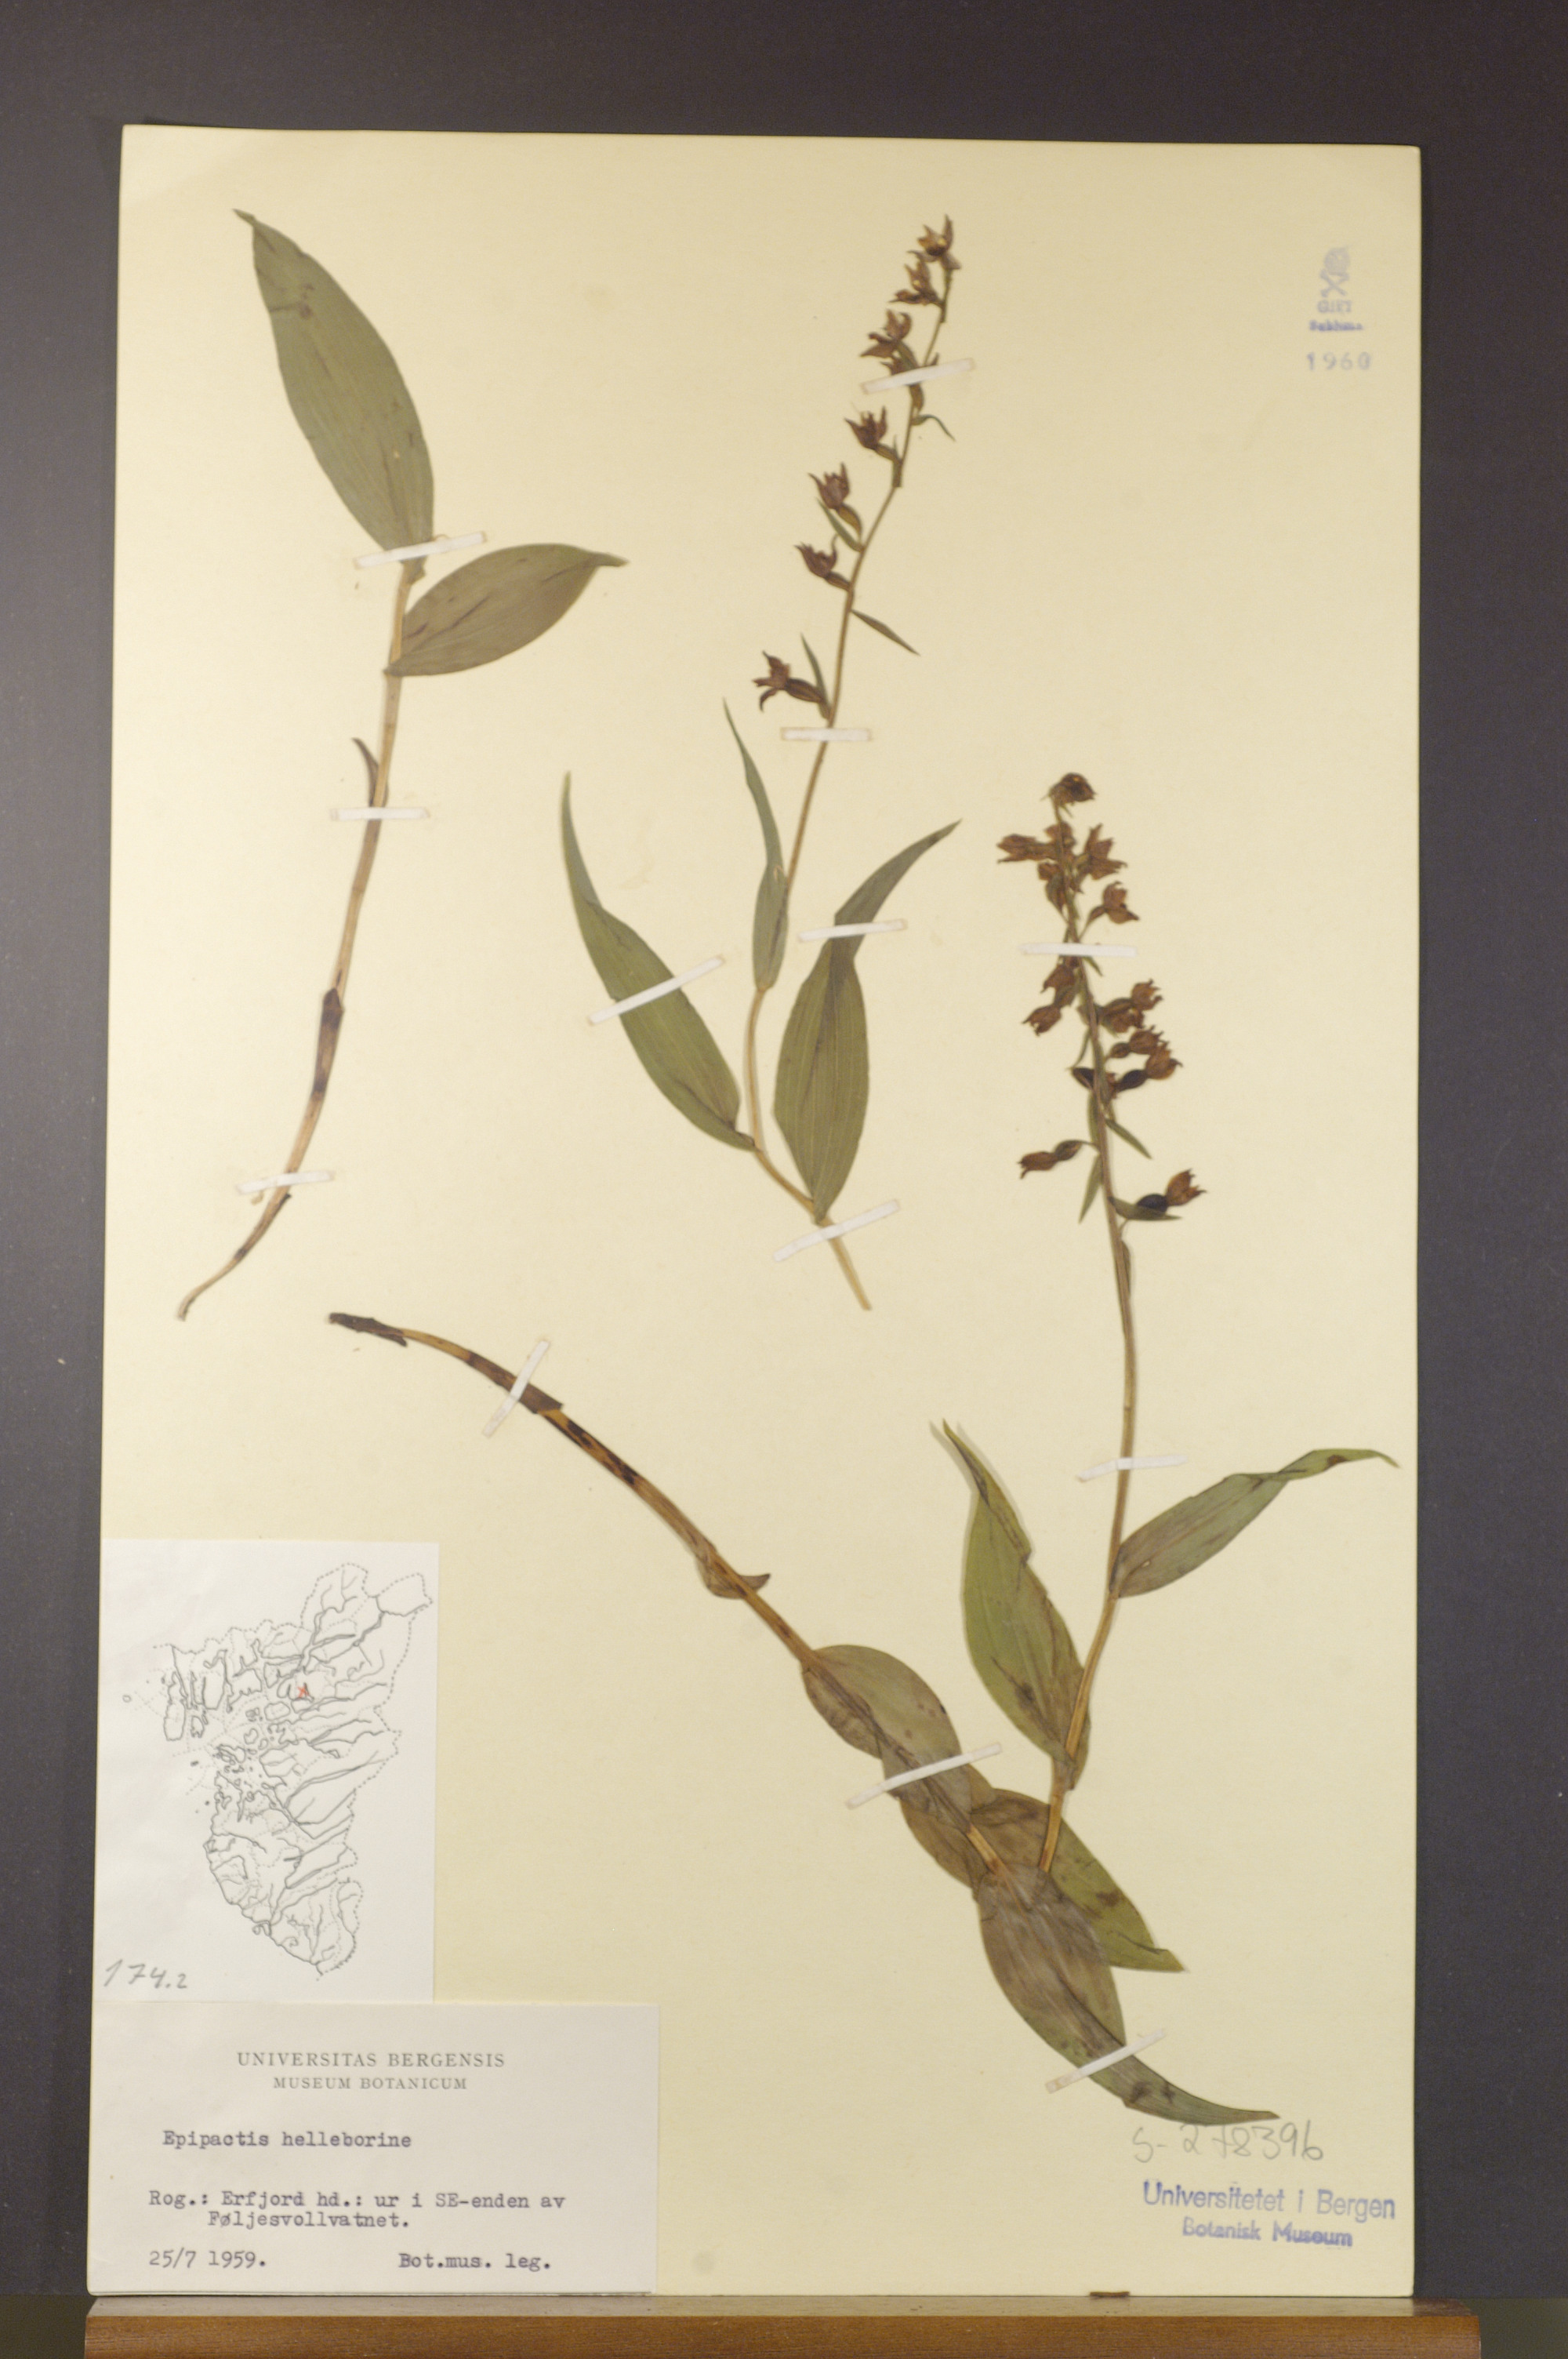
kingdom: Plantae
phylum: Tracheophyta
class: Liliopsida
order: Asparagales
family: Orchidaceae
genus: Epipactis
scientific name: Epipactis helleborine
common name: Broad-leaved helleborine
